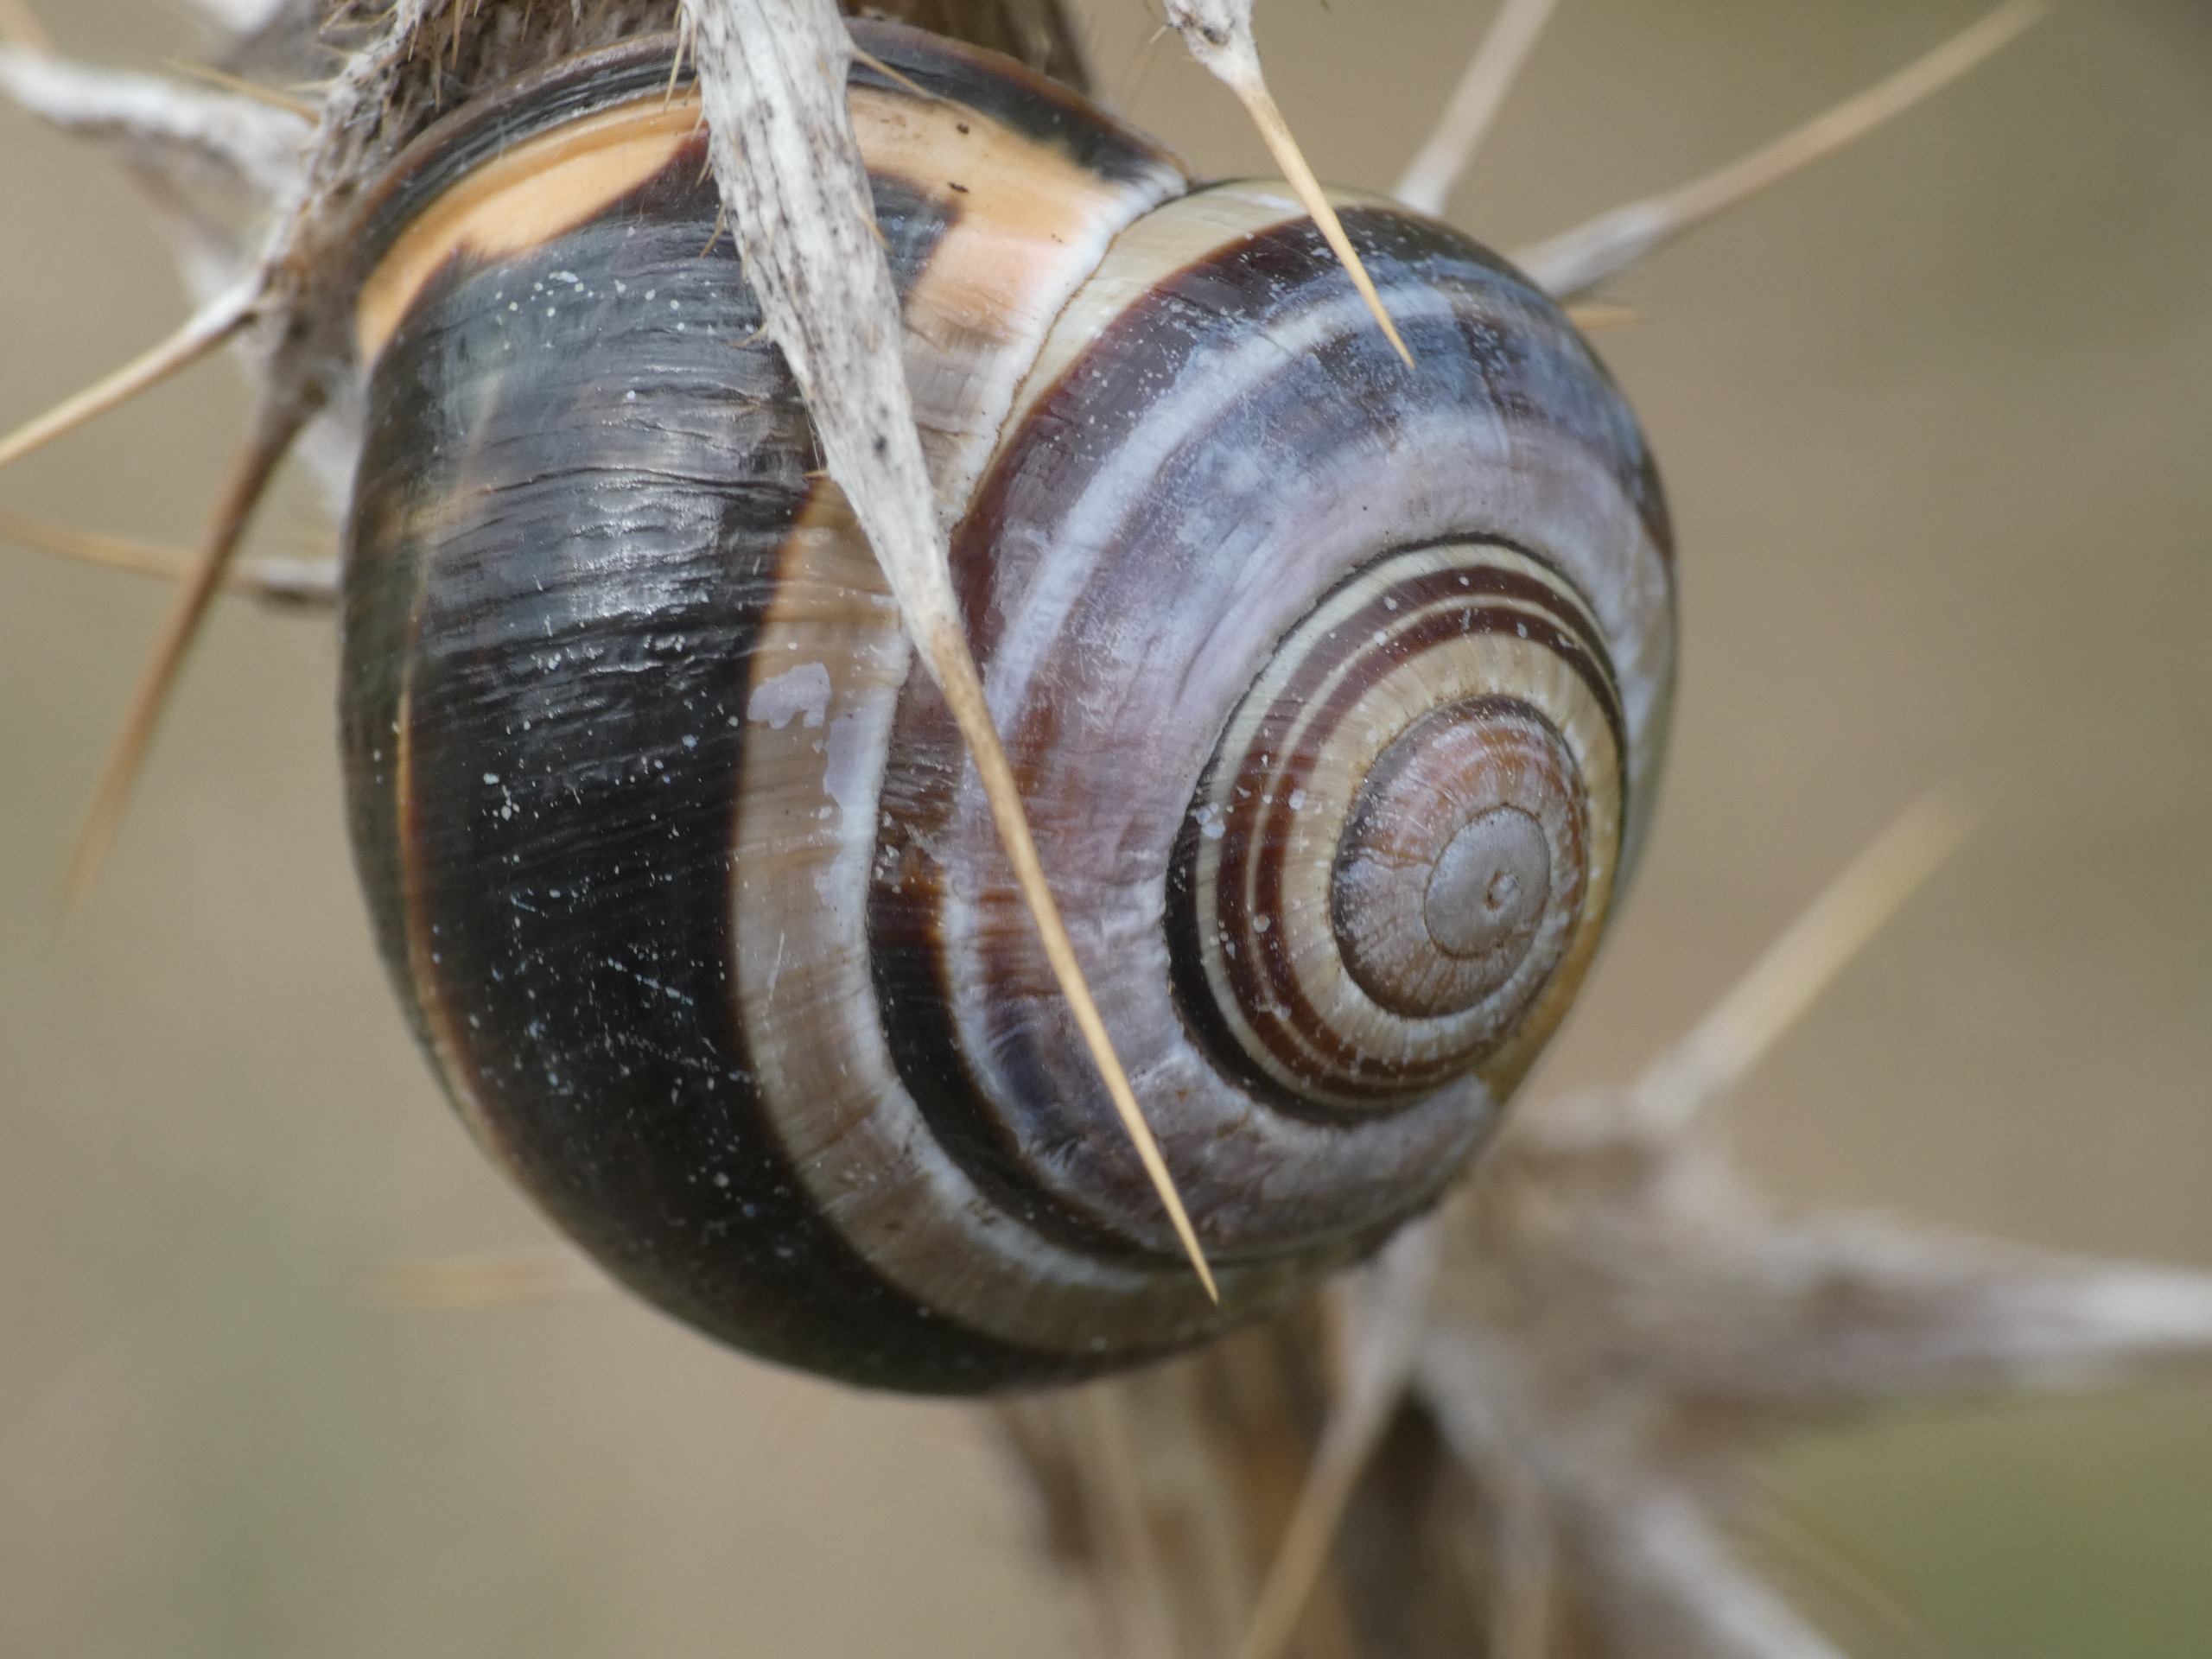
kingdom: Animalia
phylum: Mollusca
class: Gastropoda
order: Stylommatophora
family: Helicidae
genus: Cepaea
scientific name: Cepaea nemoralis
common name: Lundsnegl
